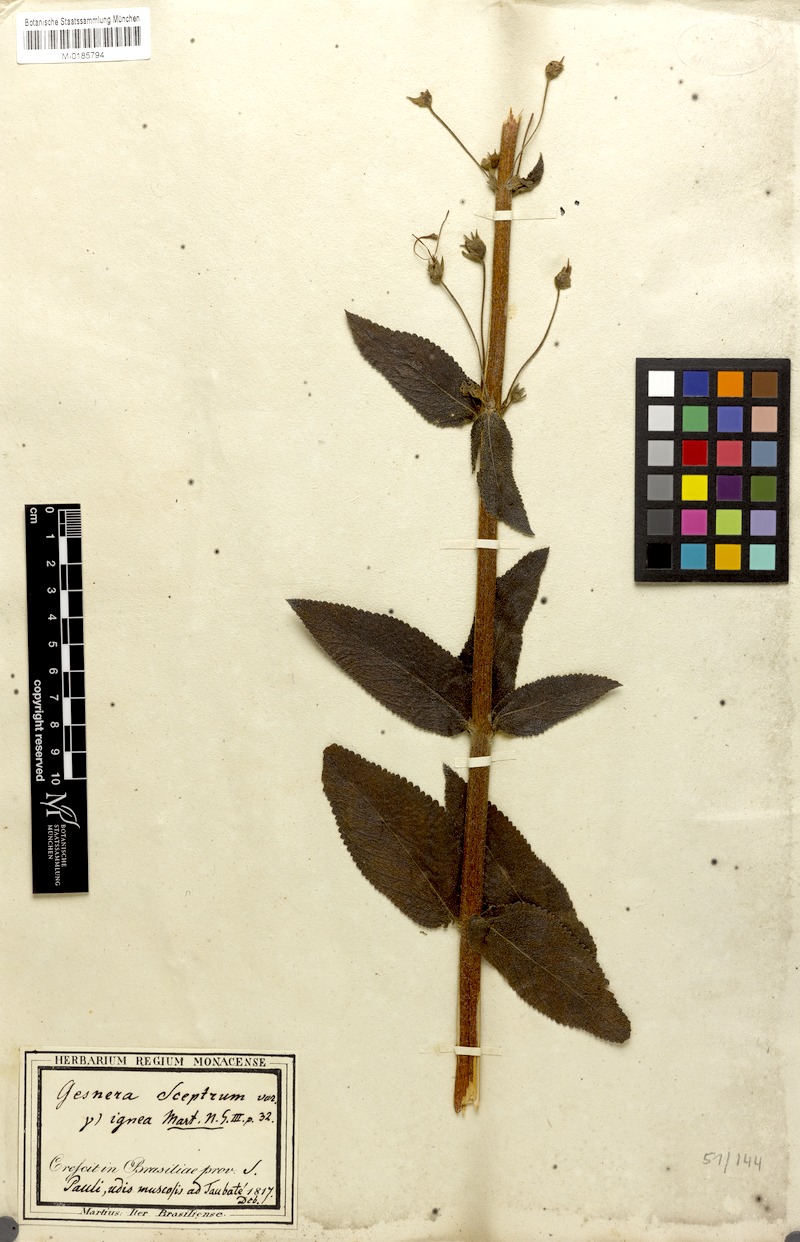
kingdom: Plantae
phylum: Tracheophyta
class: Magnoliopsida
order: Lamiales
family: Gesneriaceae
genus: Sinningia
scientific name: Sinningia sceptrum
